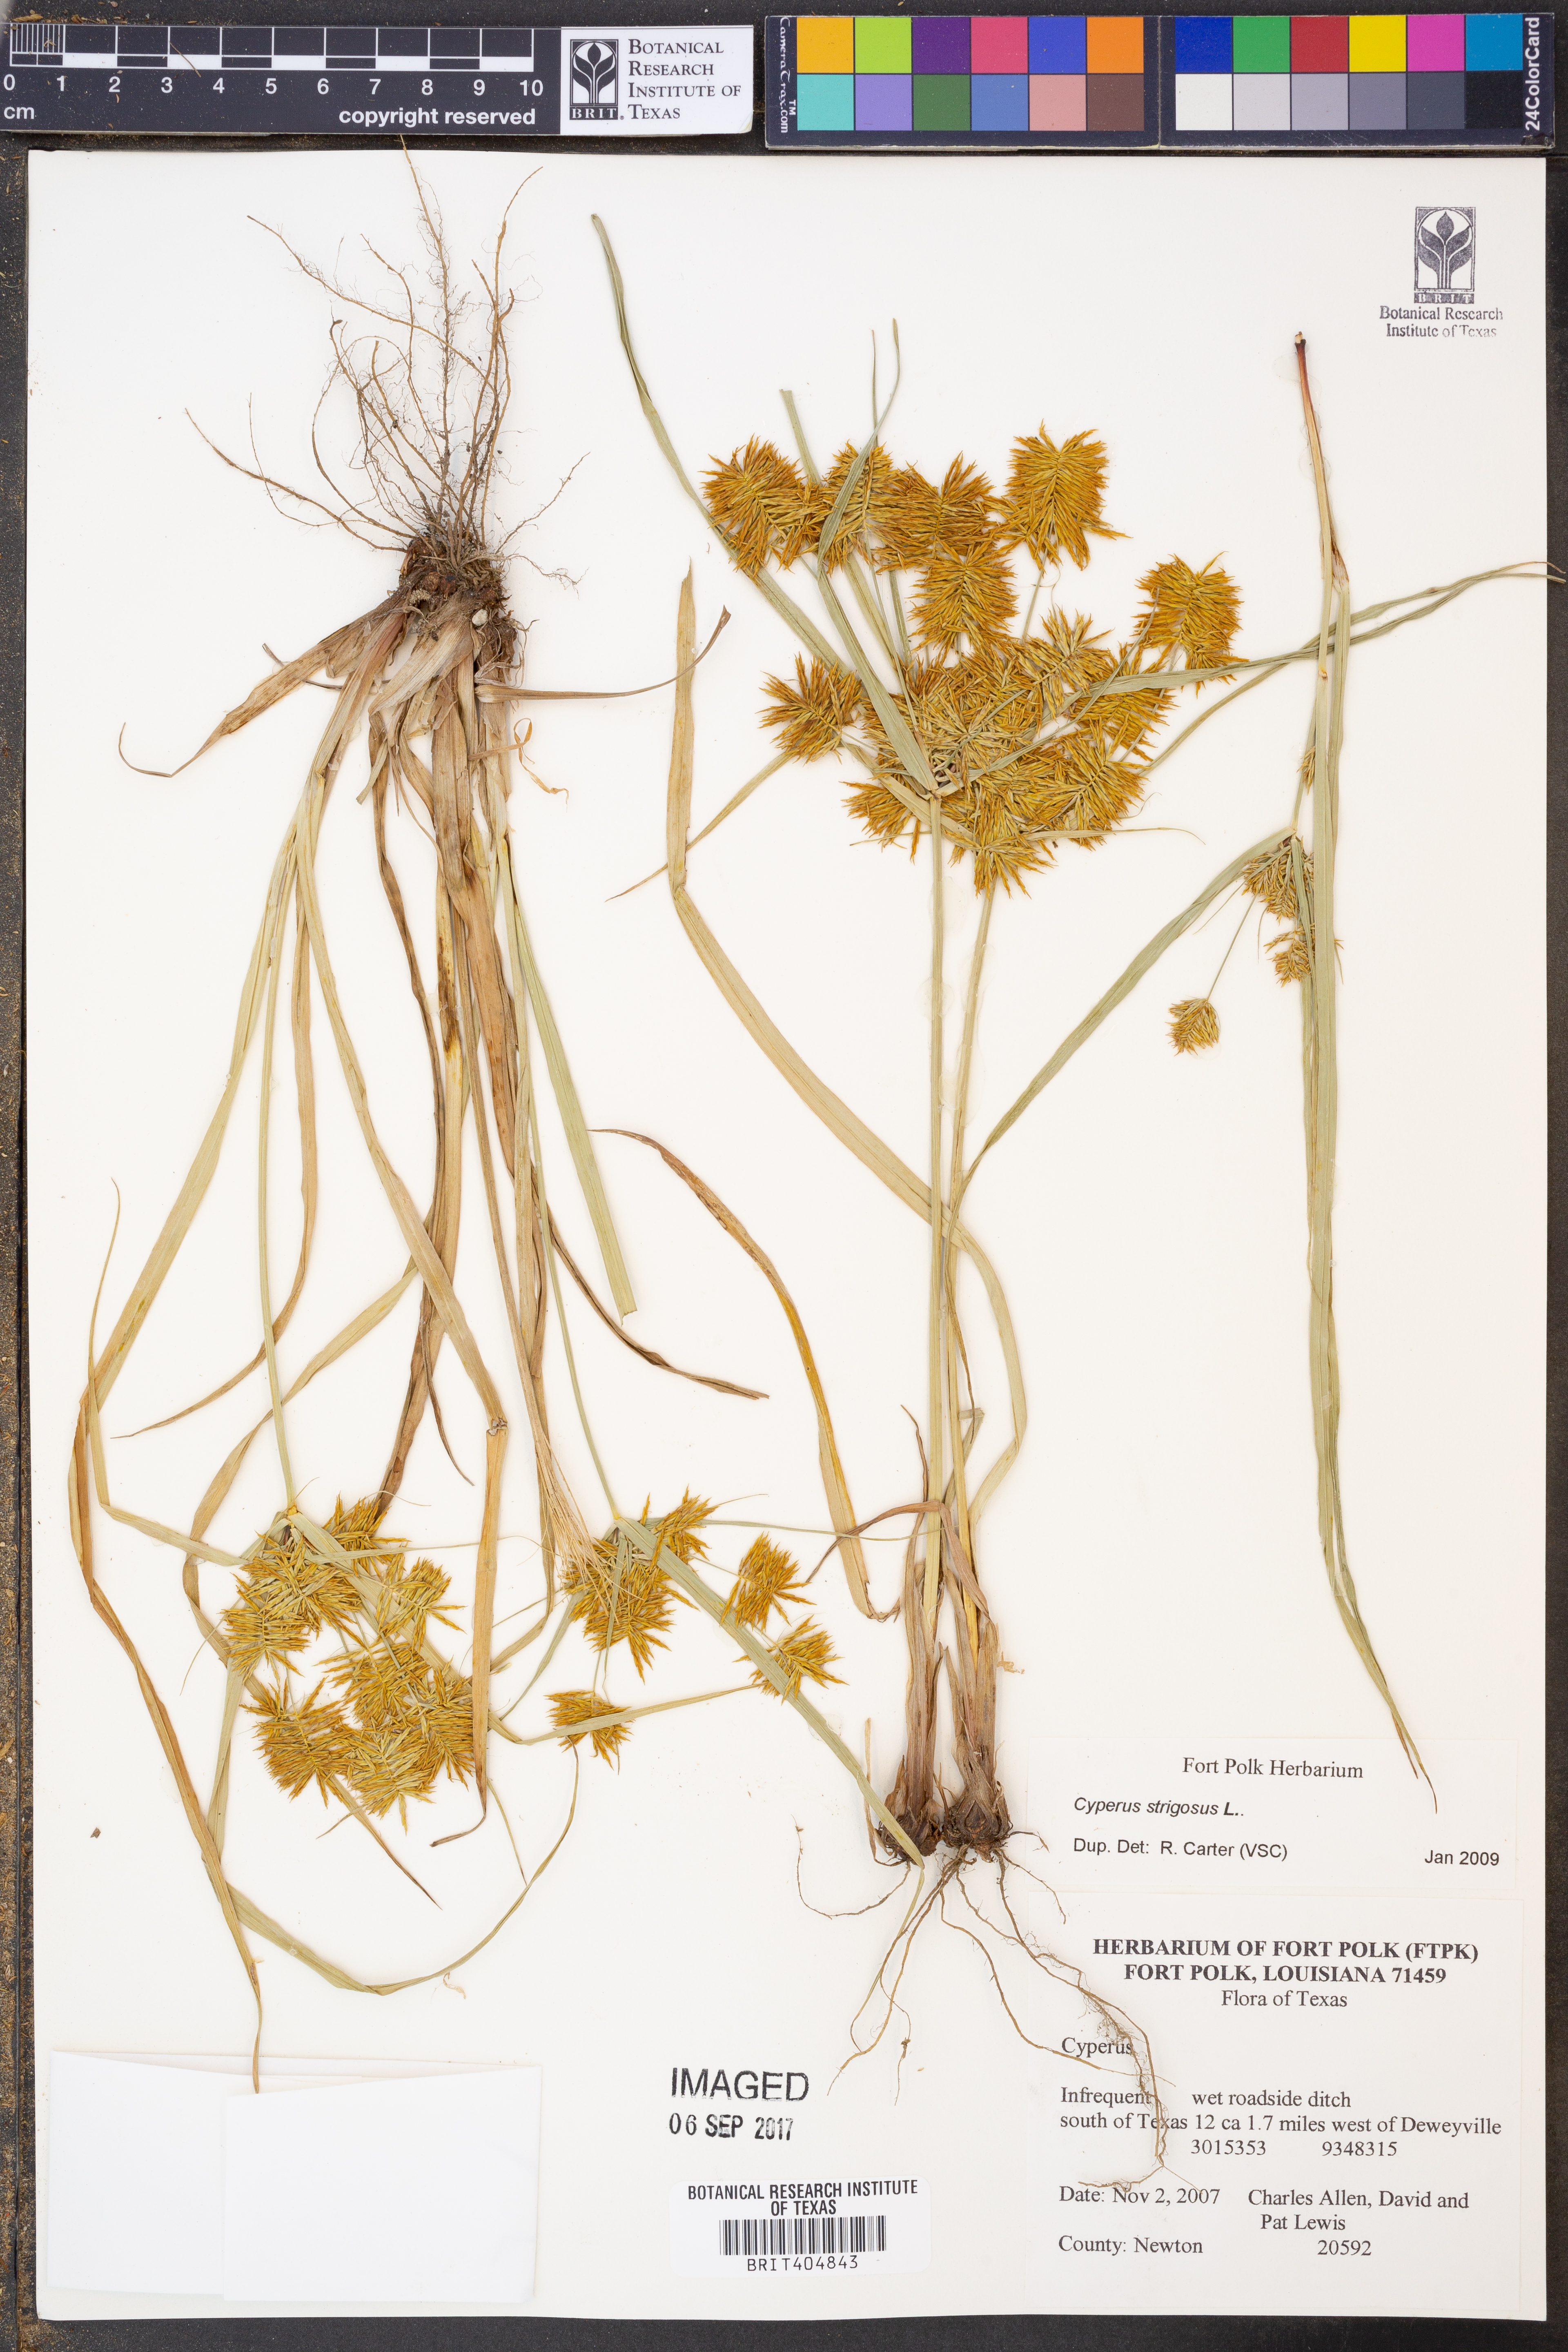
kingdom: Plantae
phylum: Tracheophyta
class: Liliopsida
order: Poales
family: Cyperaceae
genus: Cyperus
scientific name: Cyperus strigosus
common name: False nutsedge
